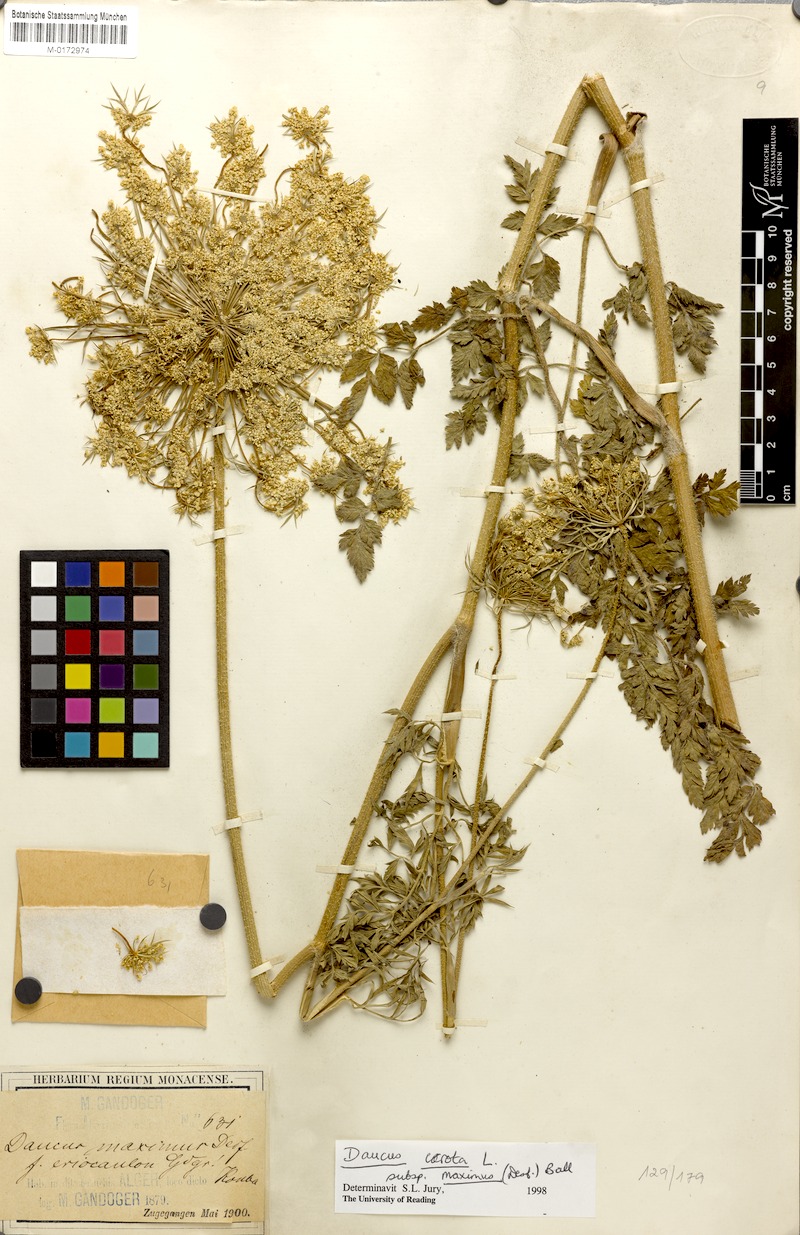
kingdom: Plantae
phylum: Tracheophyta
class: Magnoliopsida
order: Apiales
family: Apiaceae
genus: Daucus
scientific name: Daucus carota
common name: Wild carrot
